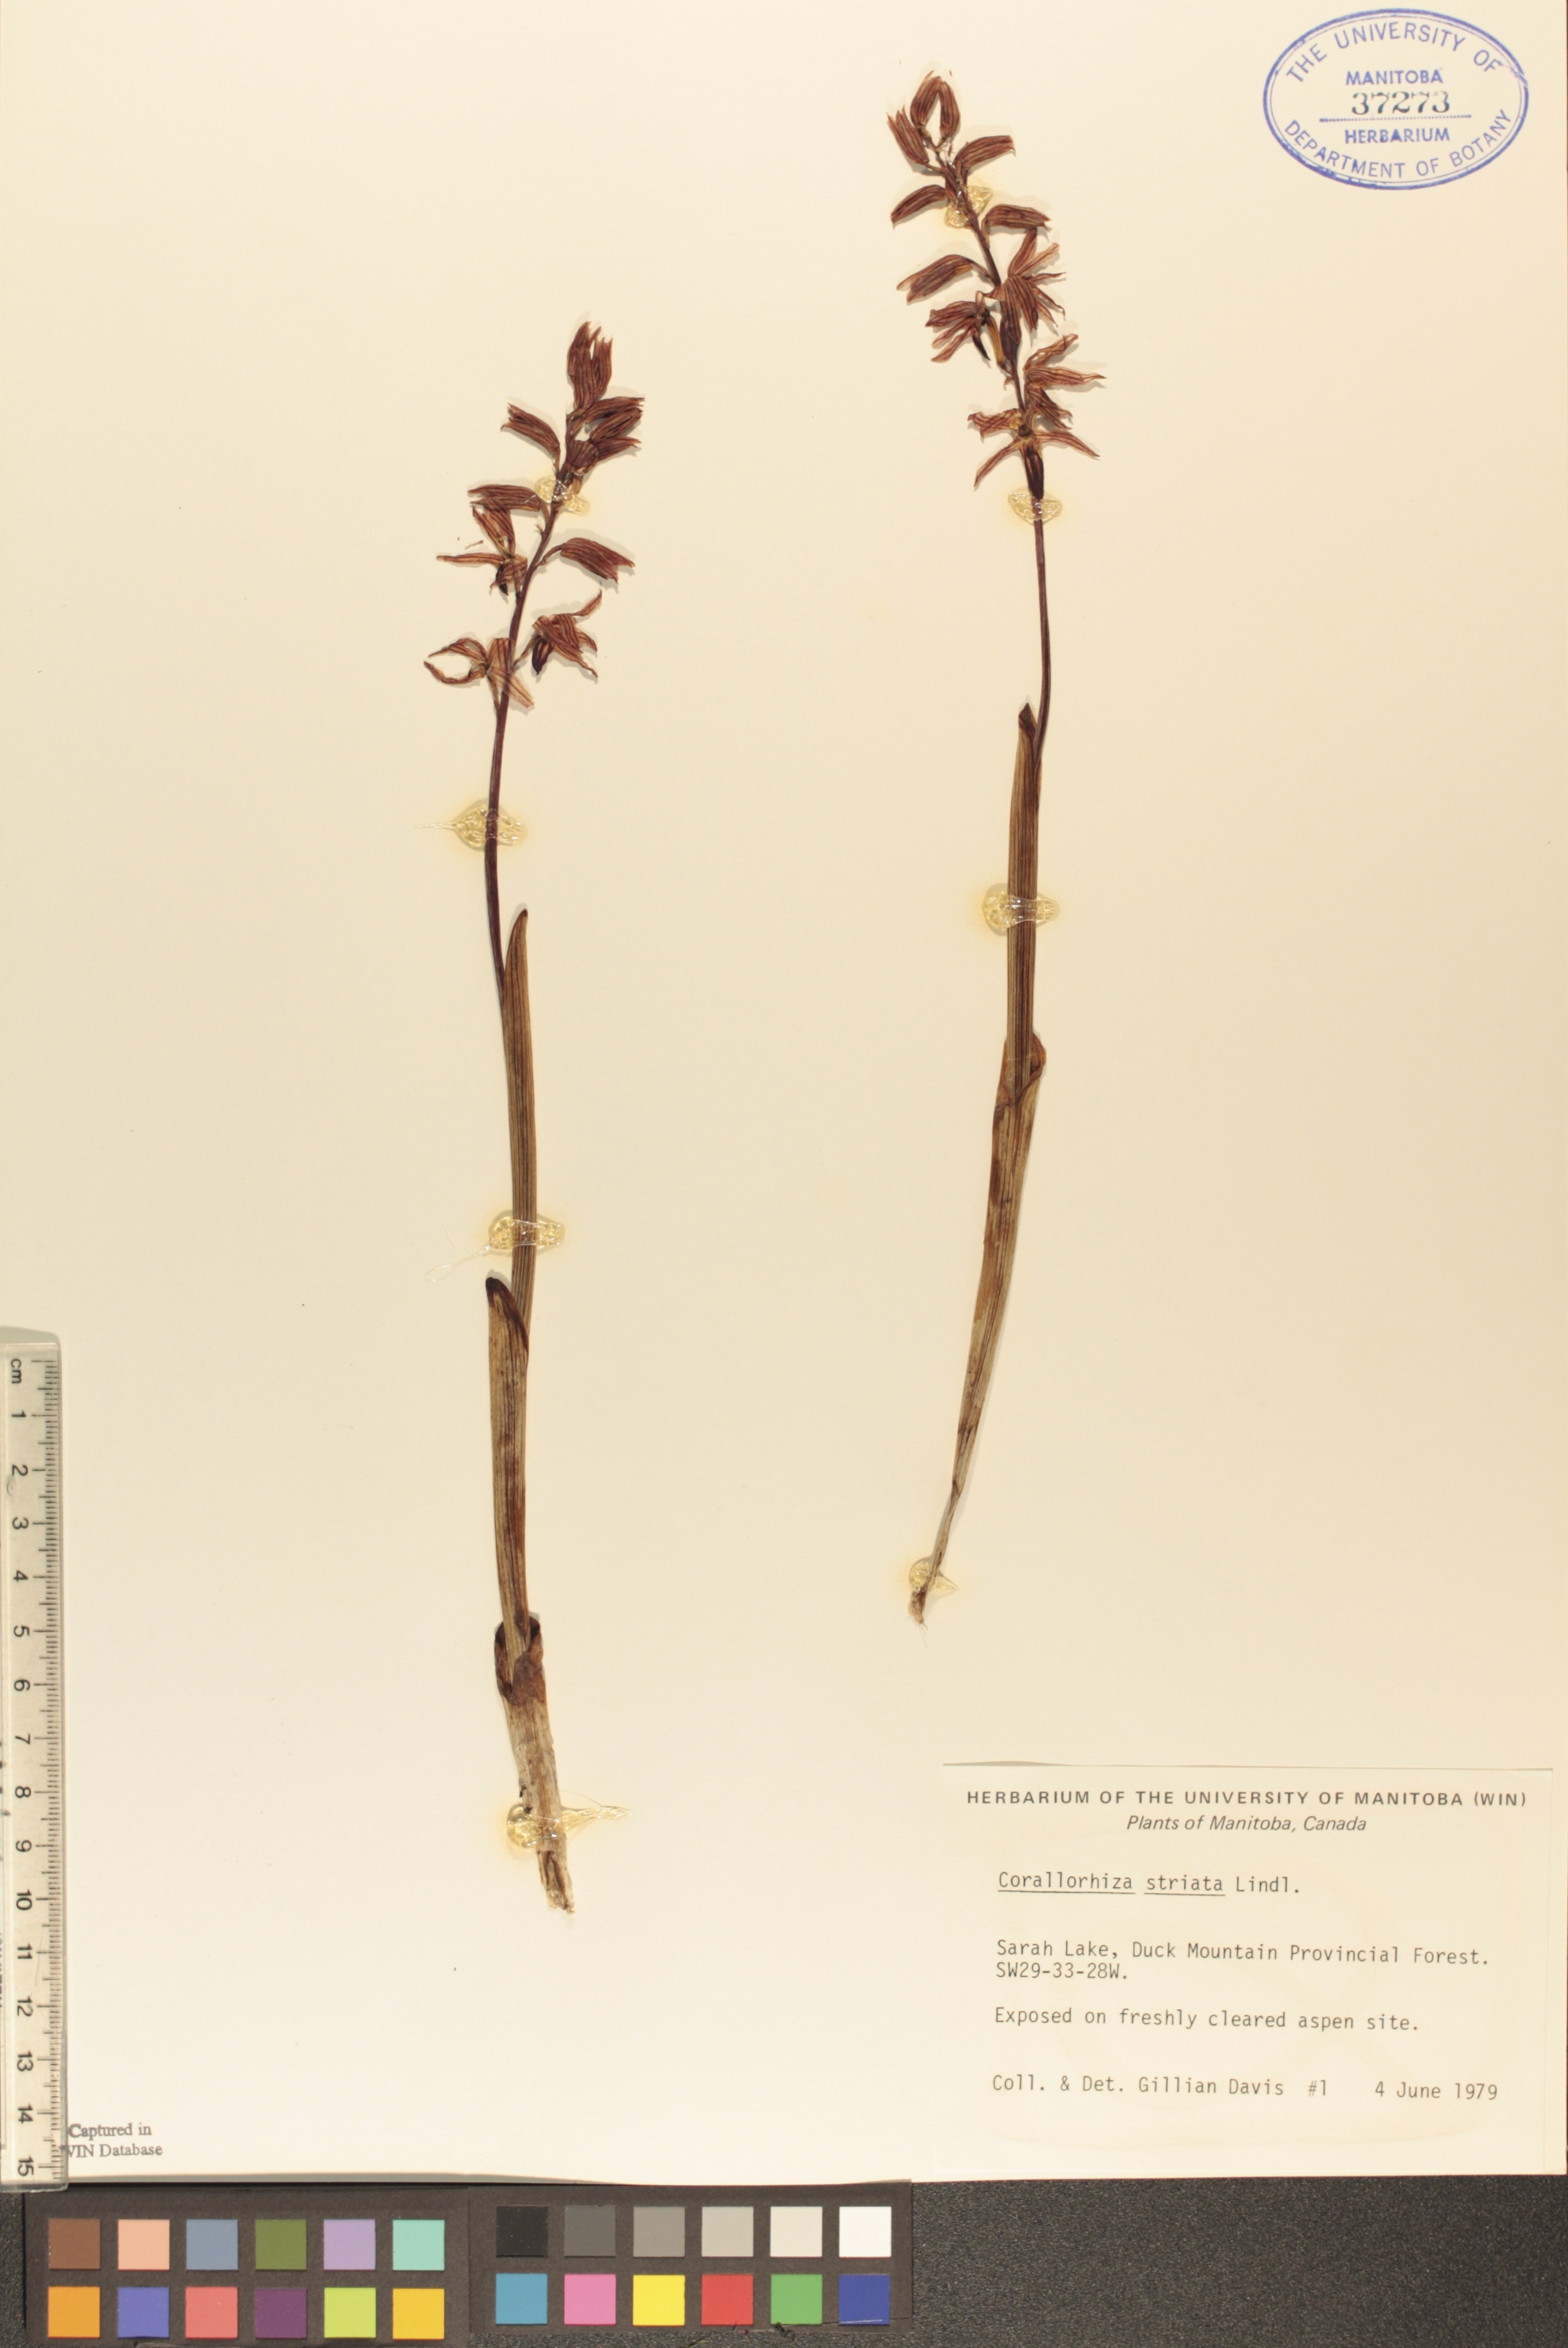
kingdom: Plantae
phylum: Tracheophyta
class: Liliopsida
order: Asparagales
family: Orchidaceae
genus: Corallorhiza
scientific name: Corallorhiza striata
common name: Hooded coralroot
